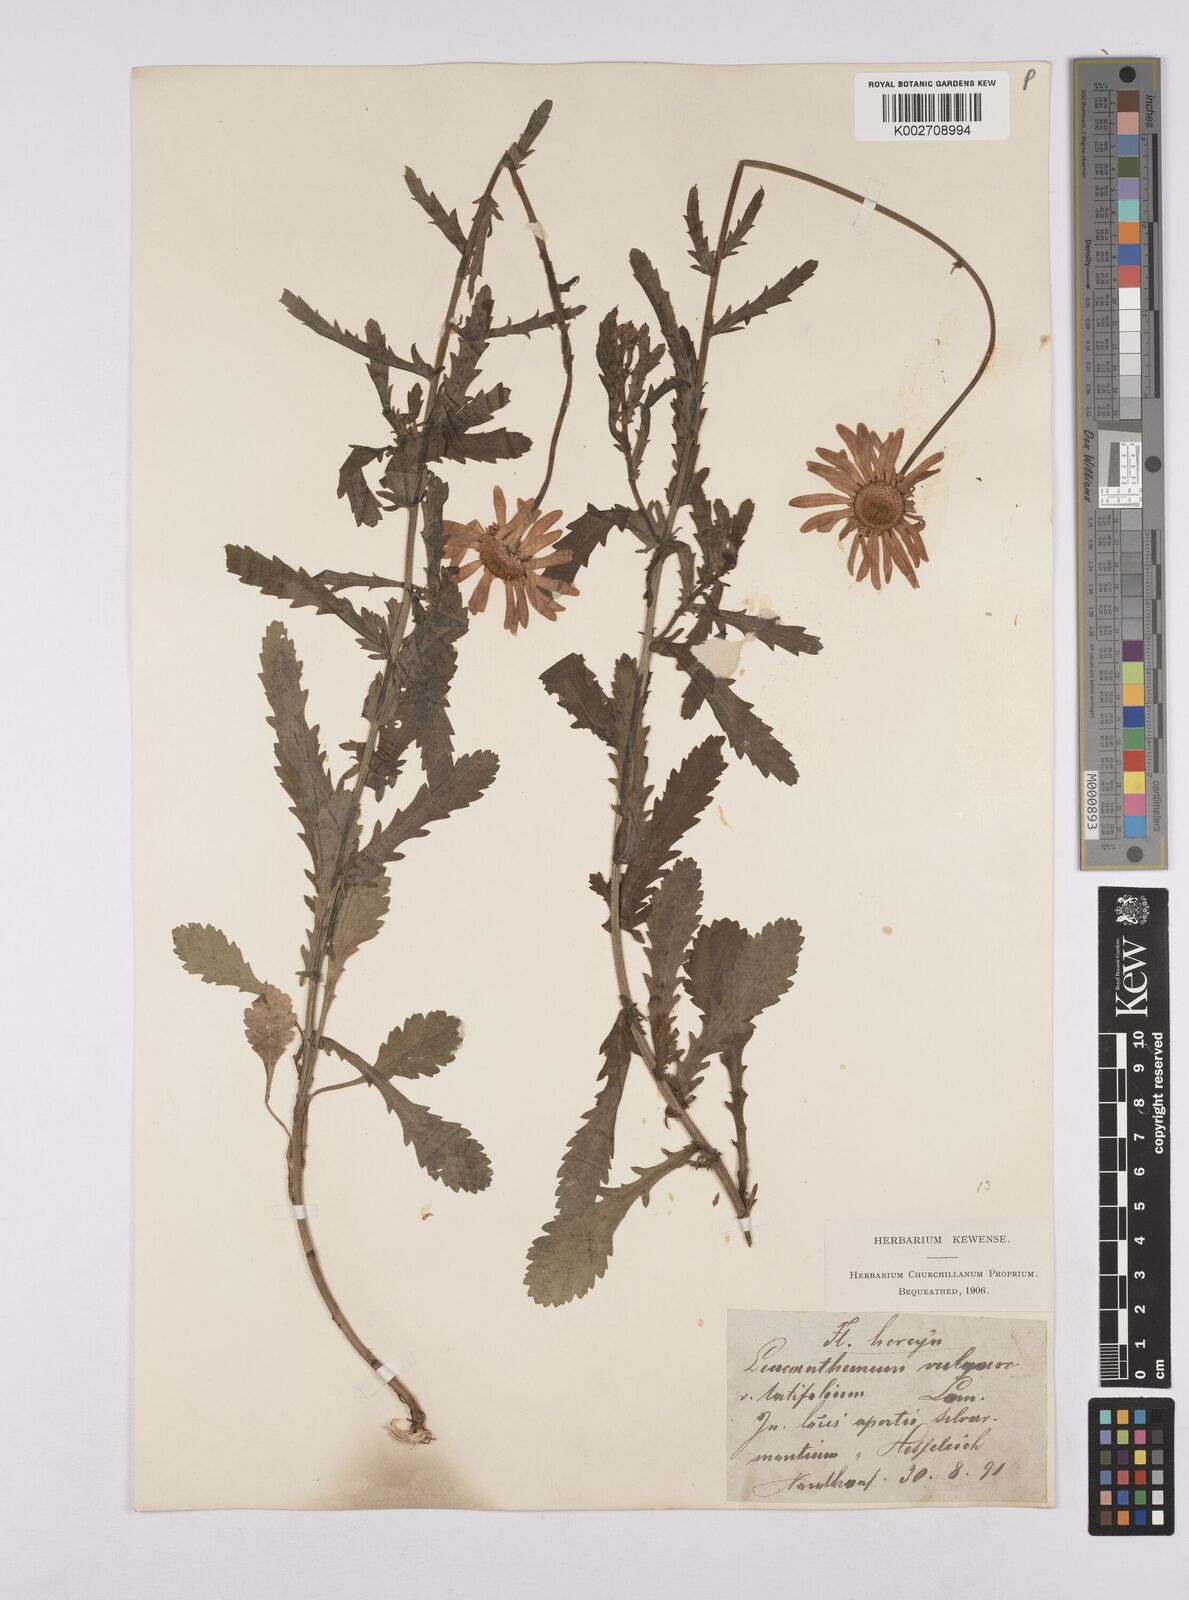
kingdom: Plantae
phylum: Tracheophyta
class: Magnoliopsida
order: Asterales
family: Asteraceae
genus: Leucanthemum
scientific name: Leucanthemum vulgare
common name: Oxeye daisy
